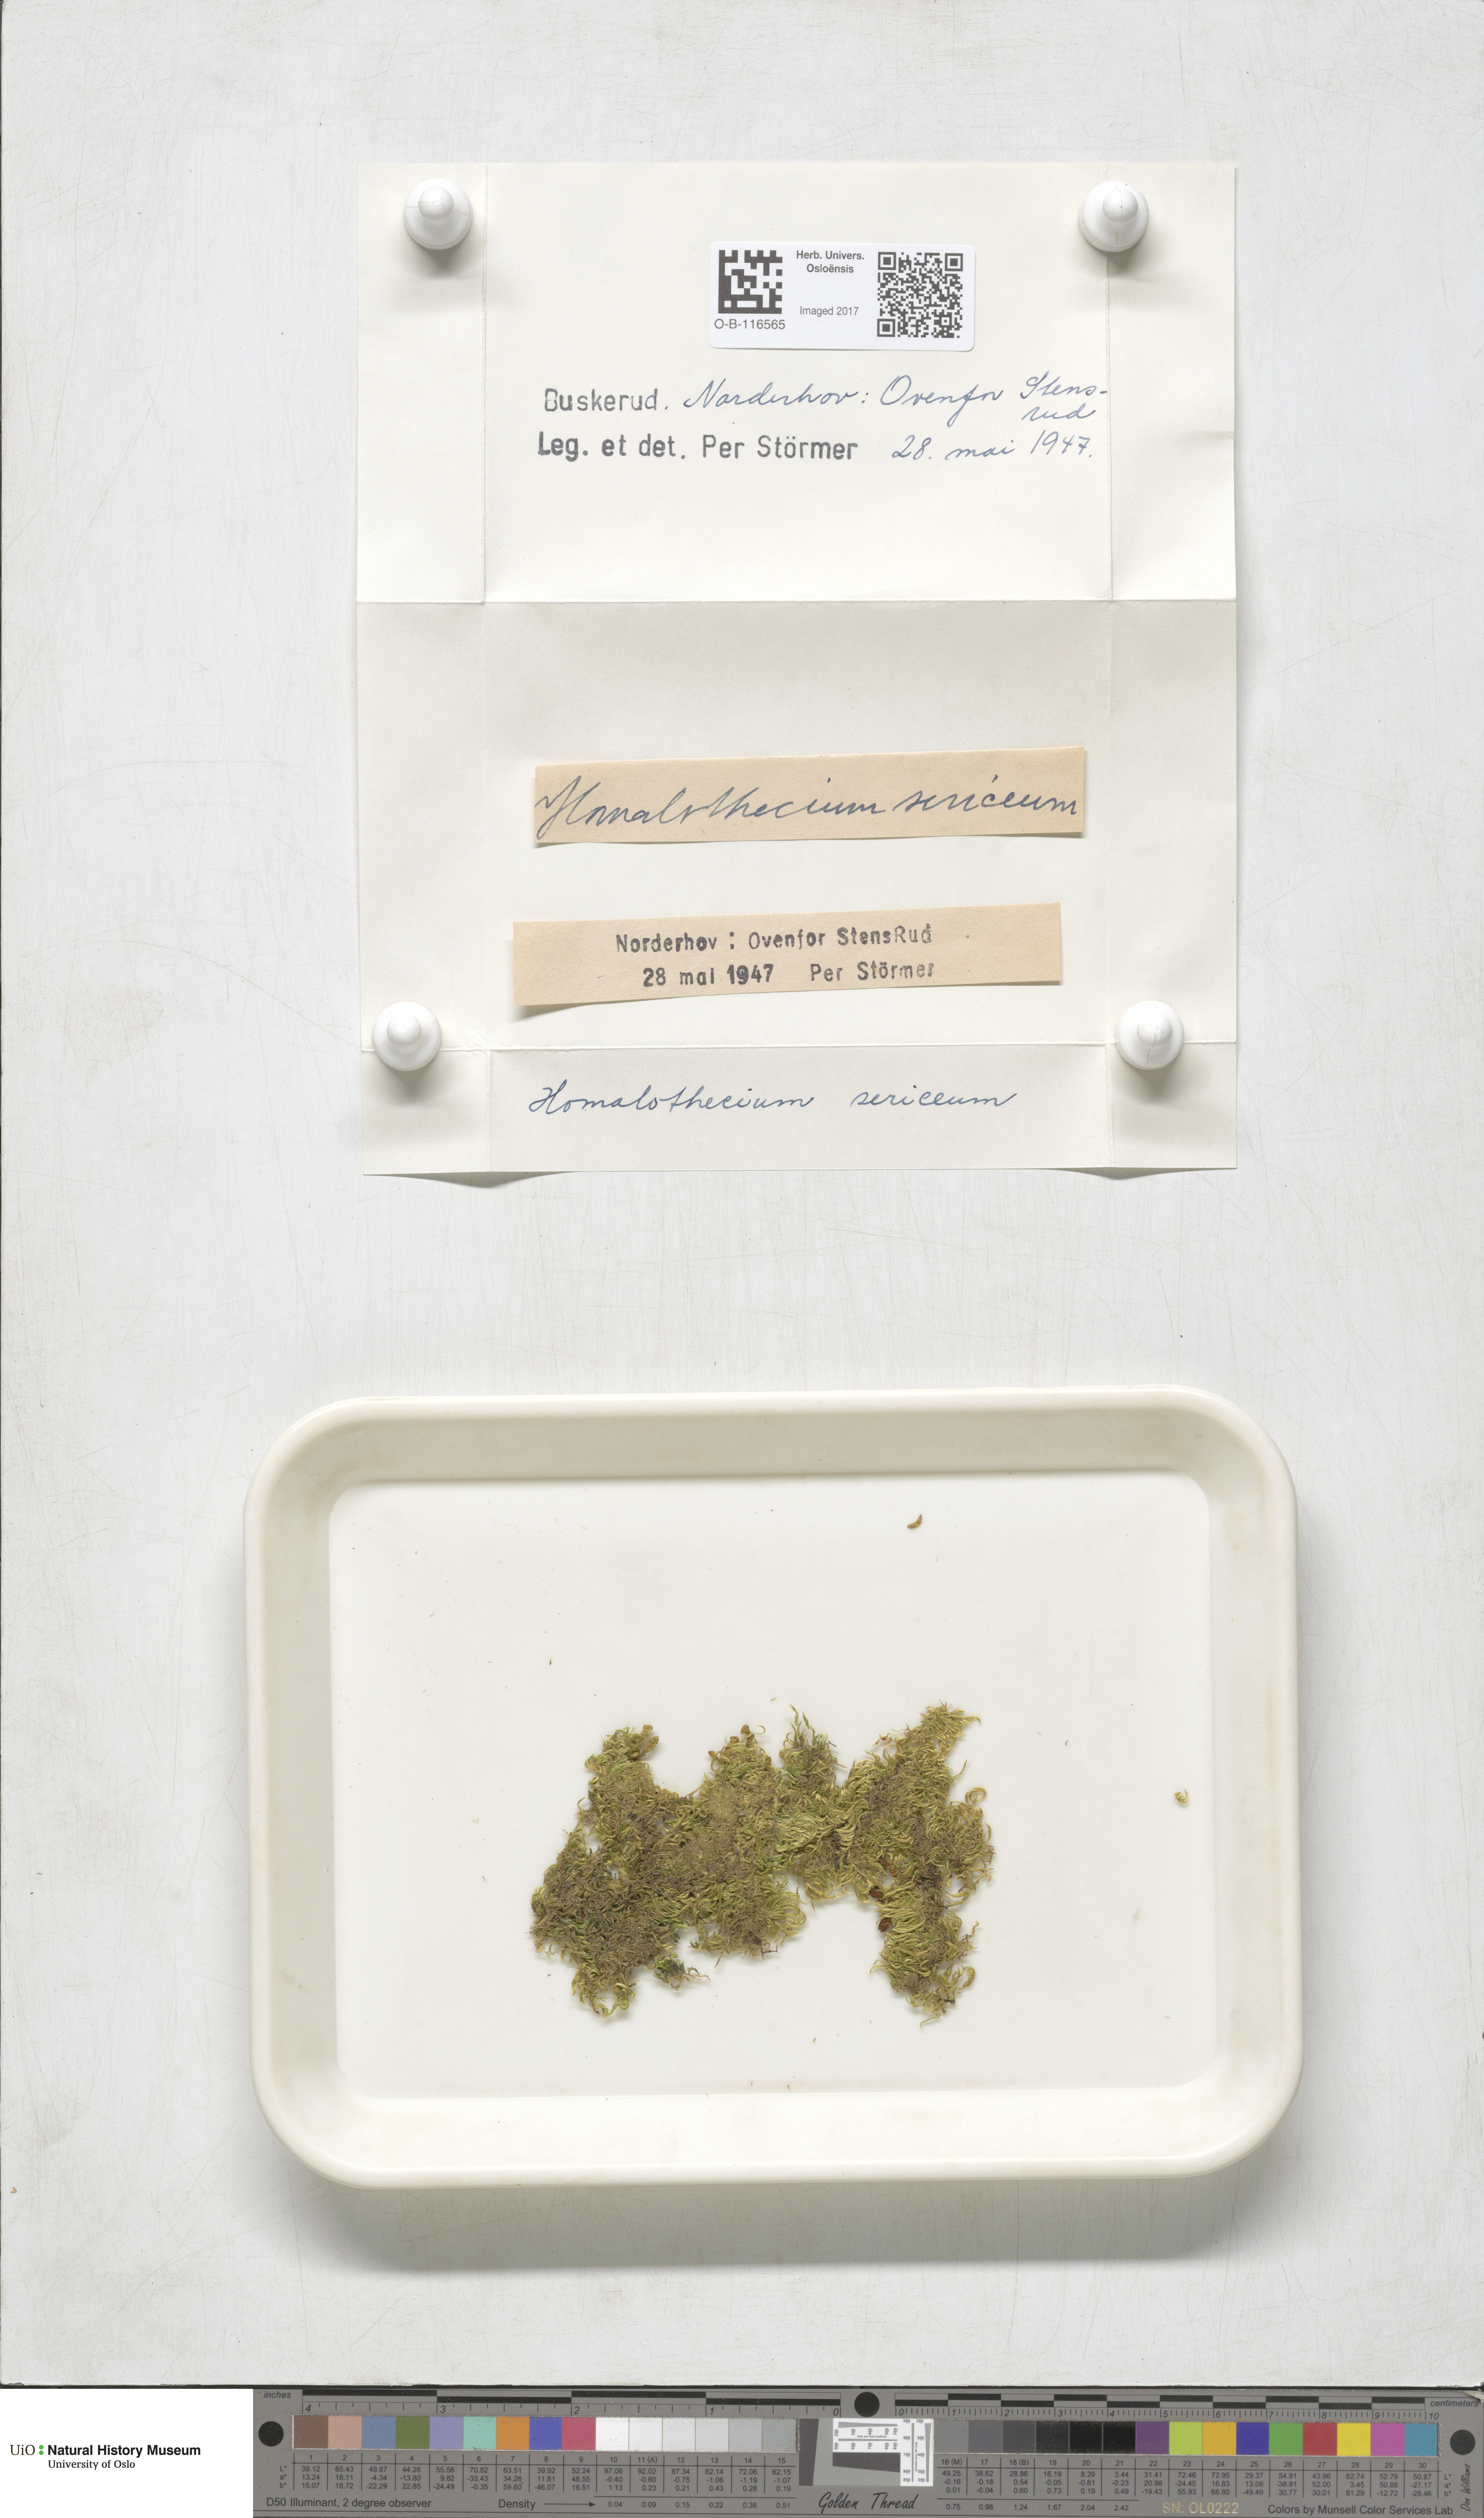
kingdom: Plantae
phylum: Bryophyta
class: Bryopsida
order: Hypnales
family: Brachytheciaceae
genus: Homalothecium
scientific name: Homalothecium sericeum
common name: Silky wall feather-moss
